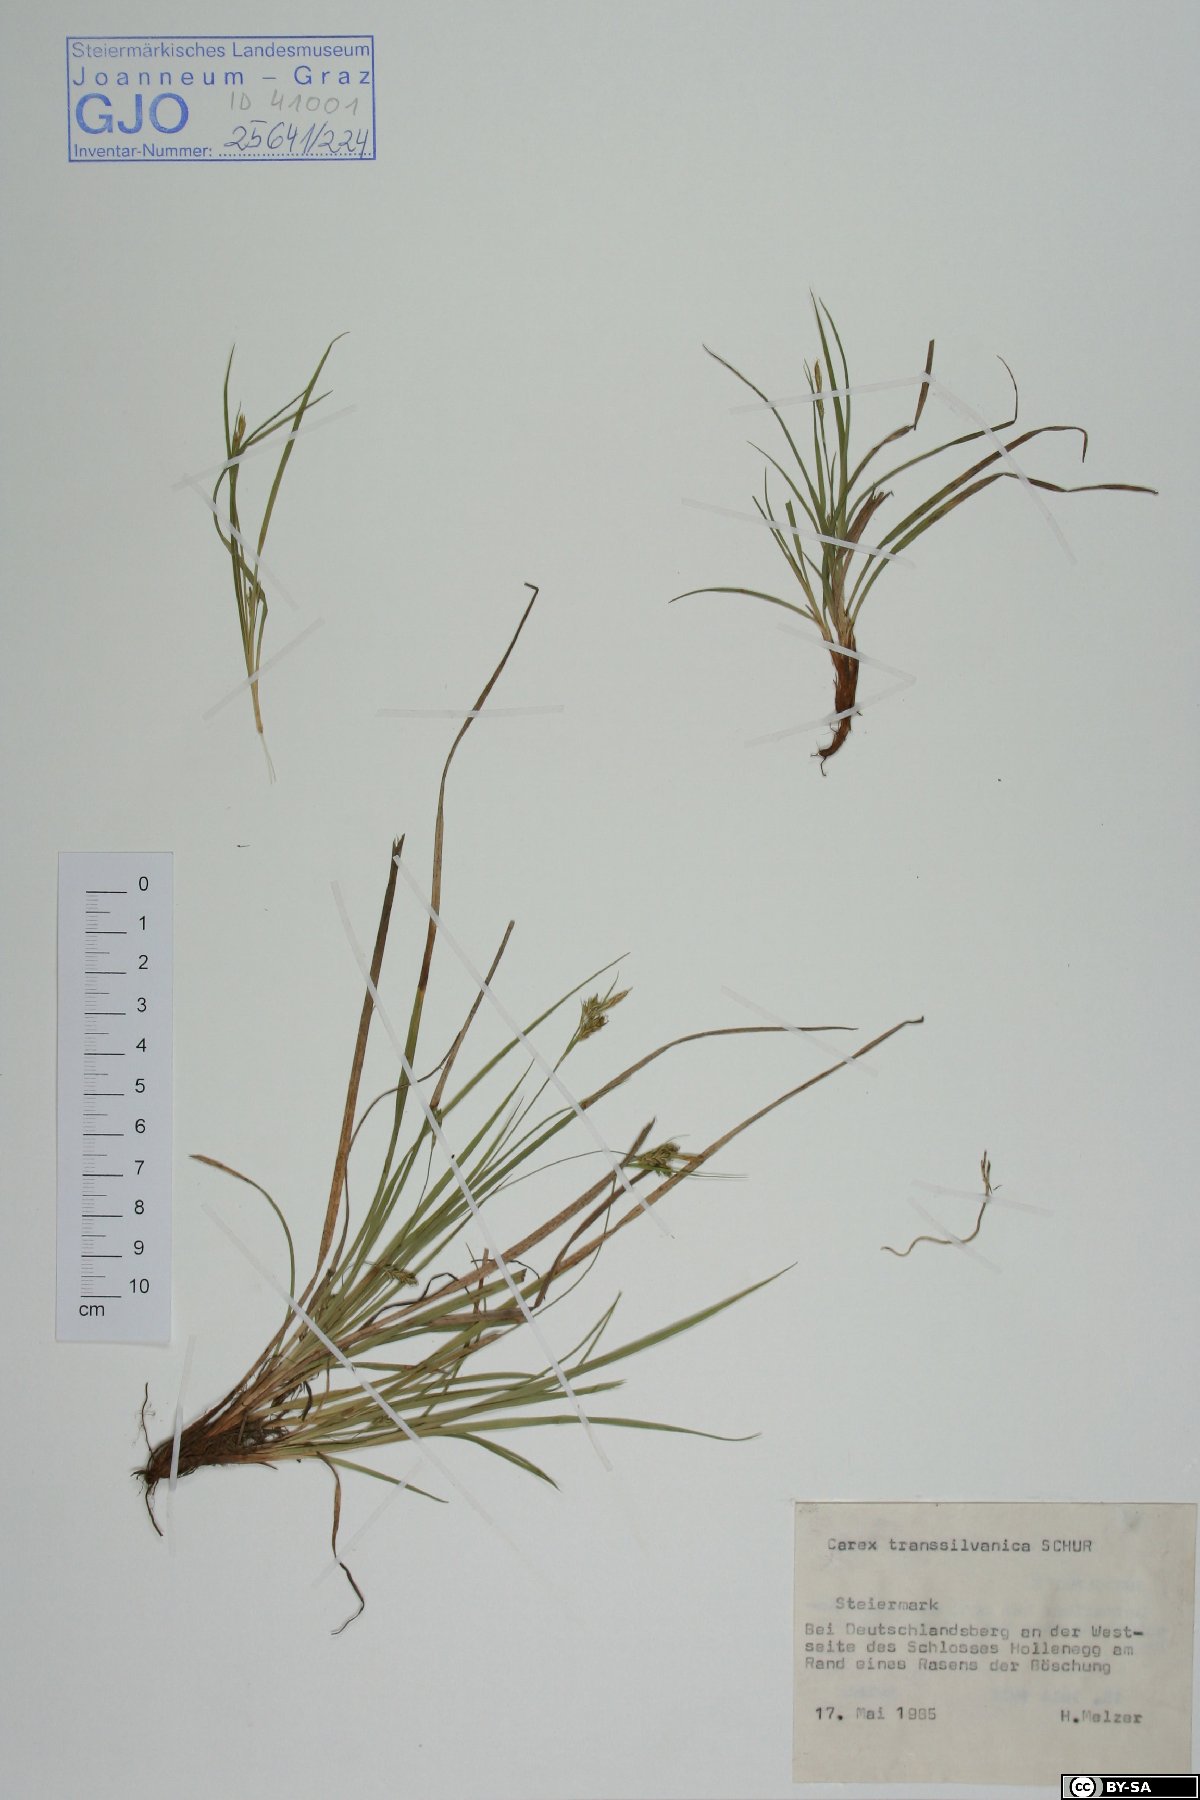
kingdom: Plantae
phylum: Tracheophyta
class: Liliopsida
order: Poales
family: Cyperaceae
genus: Carex
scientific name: Carex depressa
